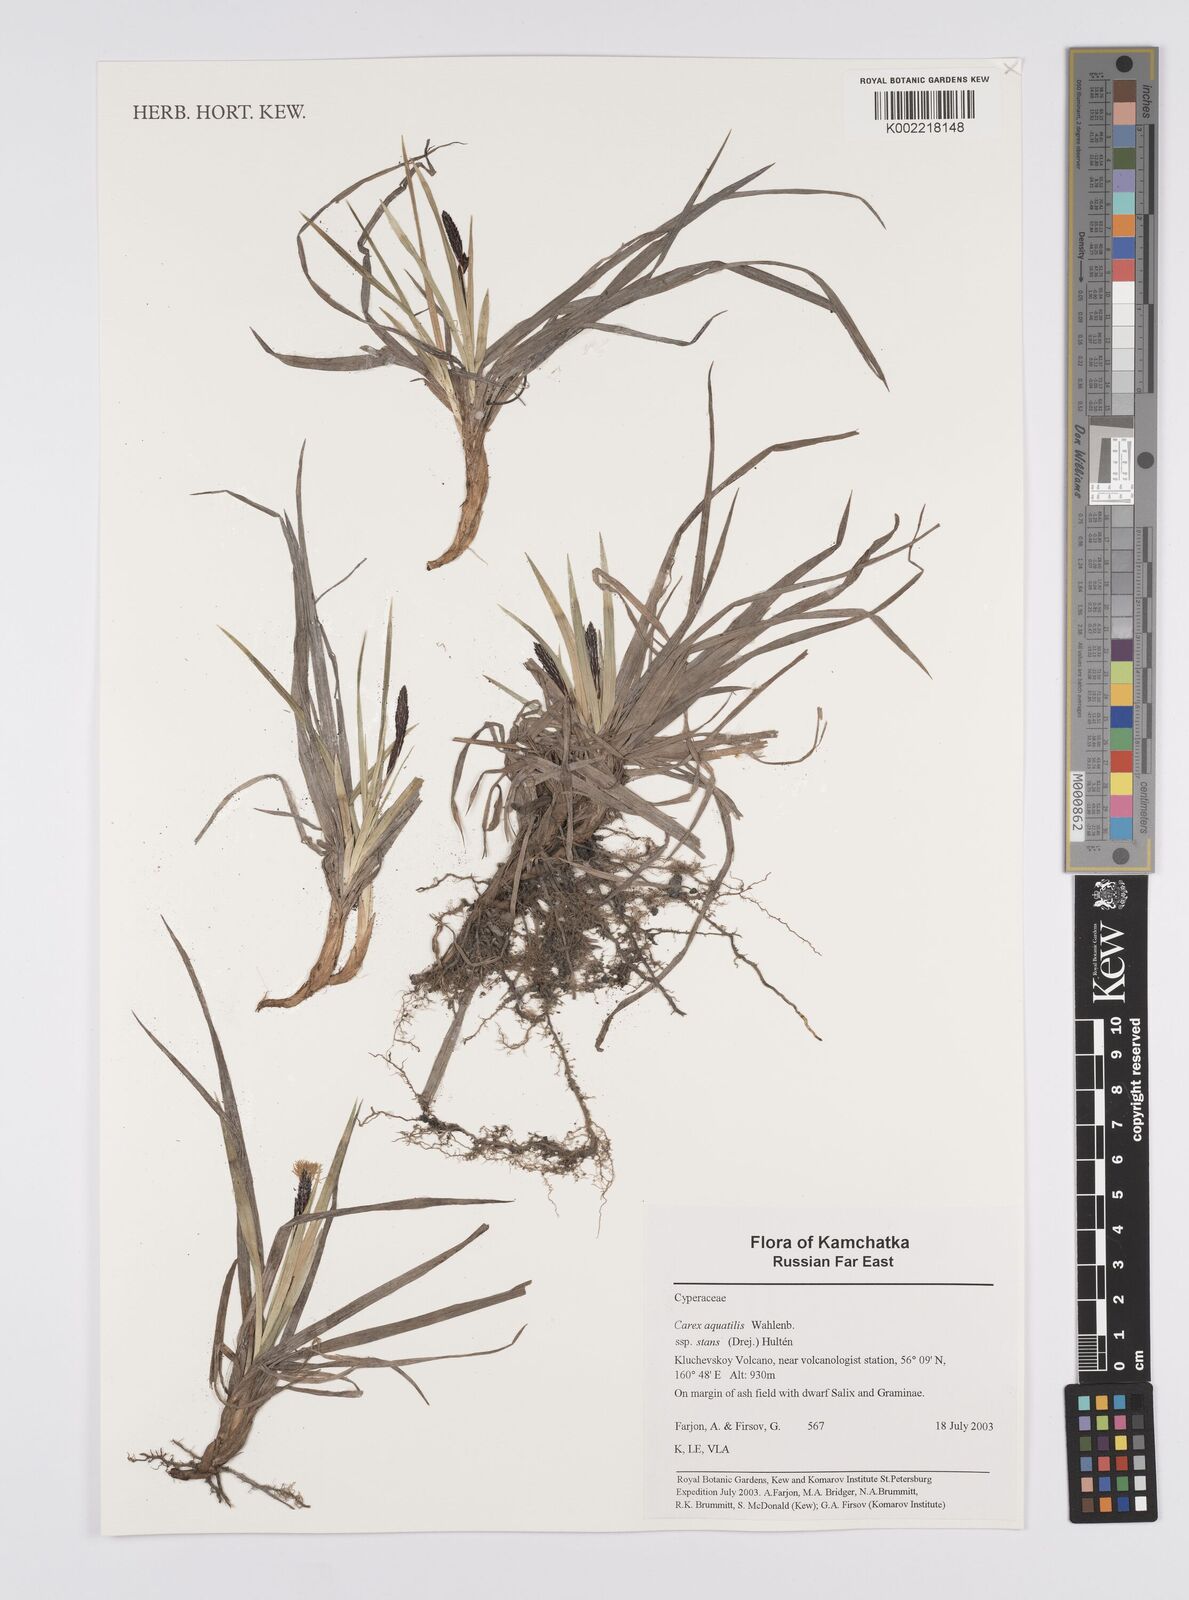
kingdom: Plantae
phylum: Tracheophyta
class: Liliopsida
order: Poales
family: Cyperaceae
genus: Carex
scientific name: Carex aquatilis
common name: Water sedge
